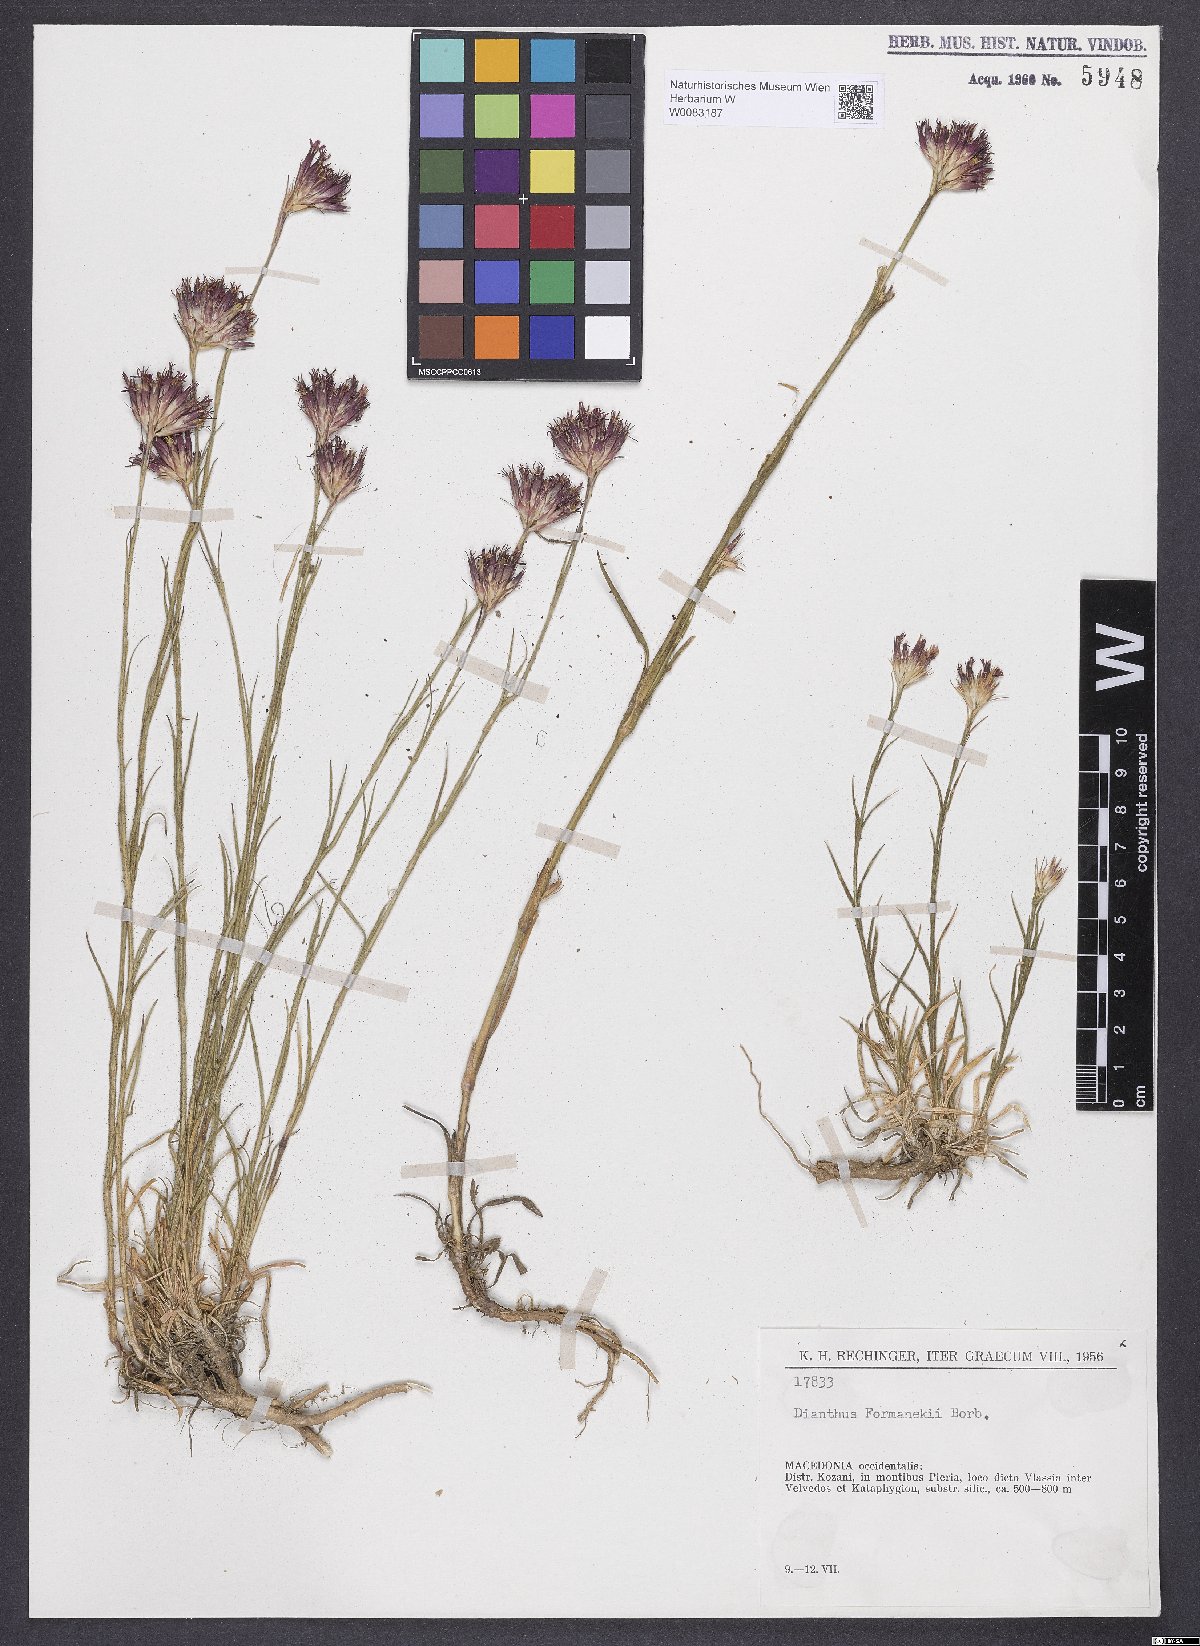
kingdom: Plantae
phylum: Tracheophyta
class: Magnoliopsida
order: Caryophyllales
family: Caryophyllaceae
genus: Dianthus
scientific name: Dianthus formanekii
